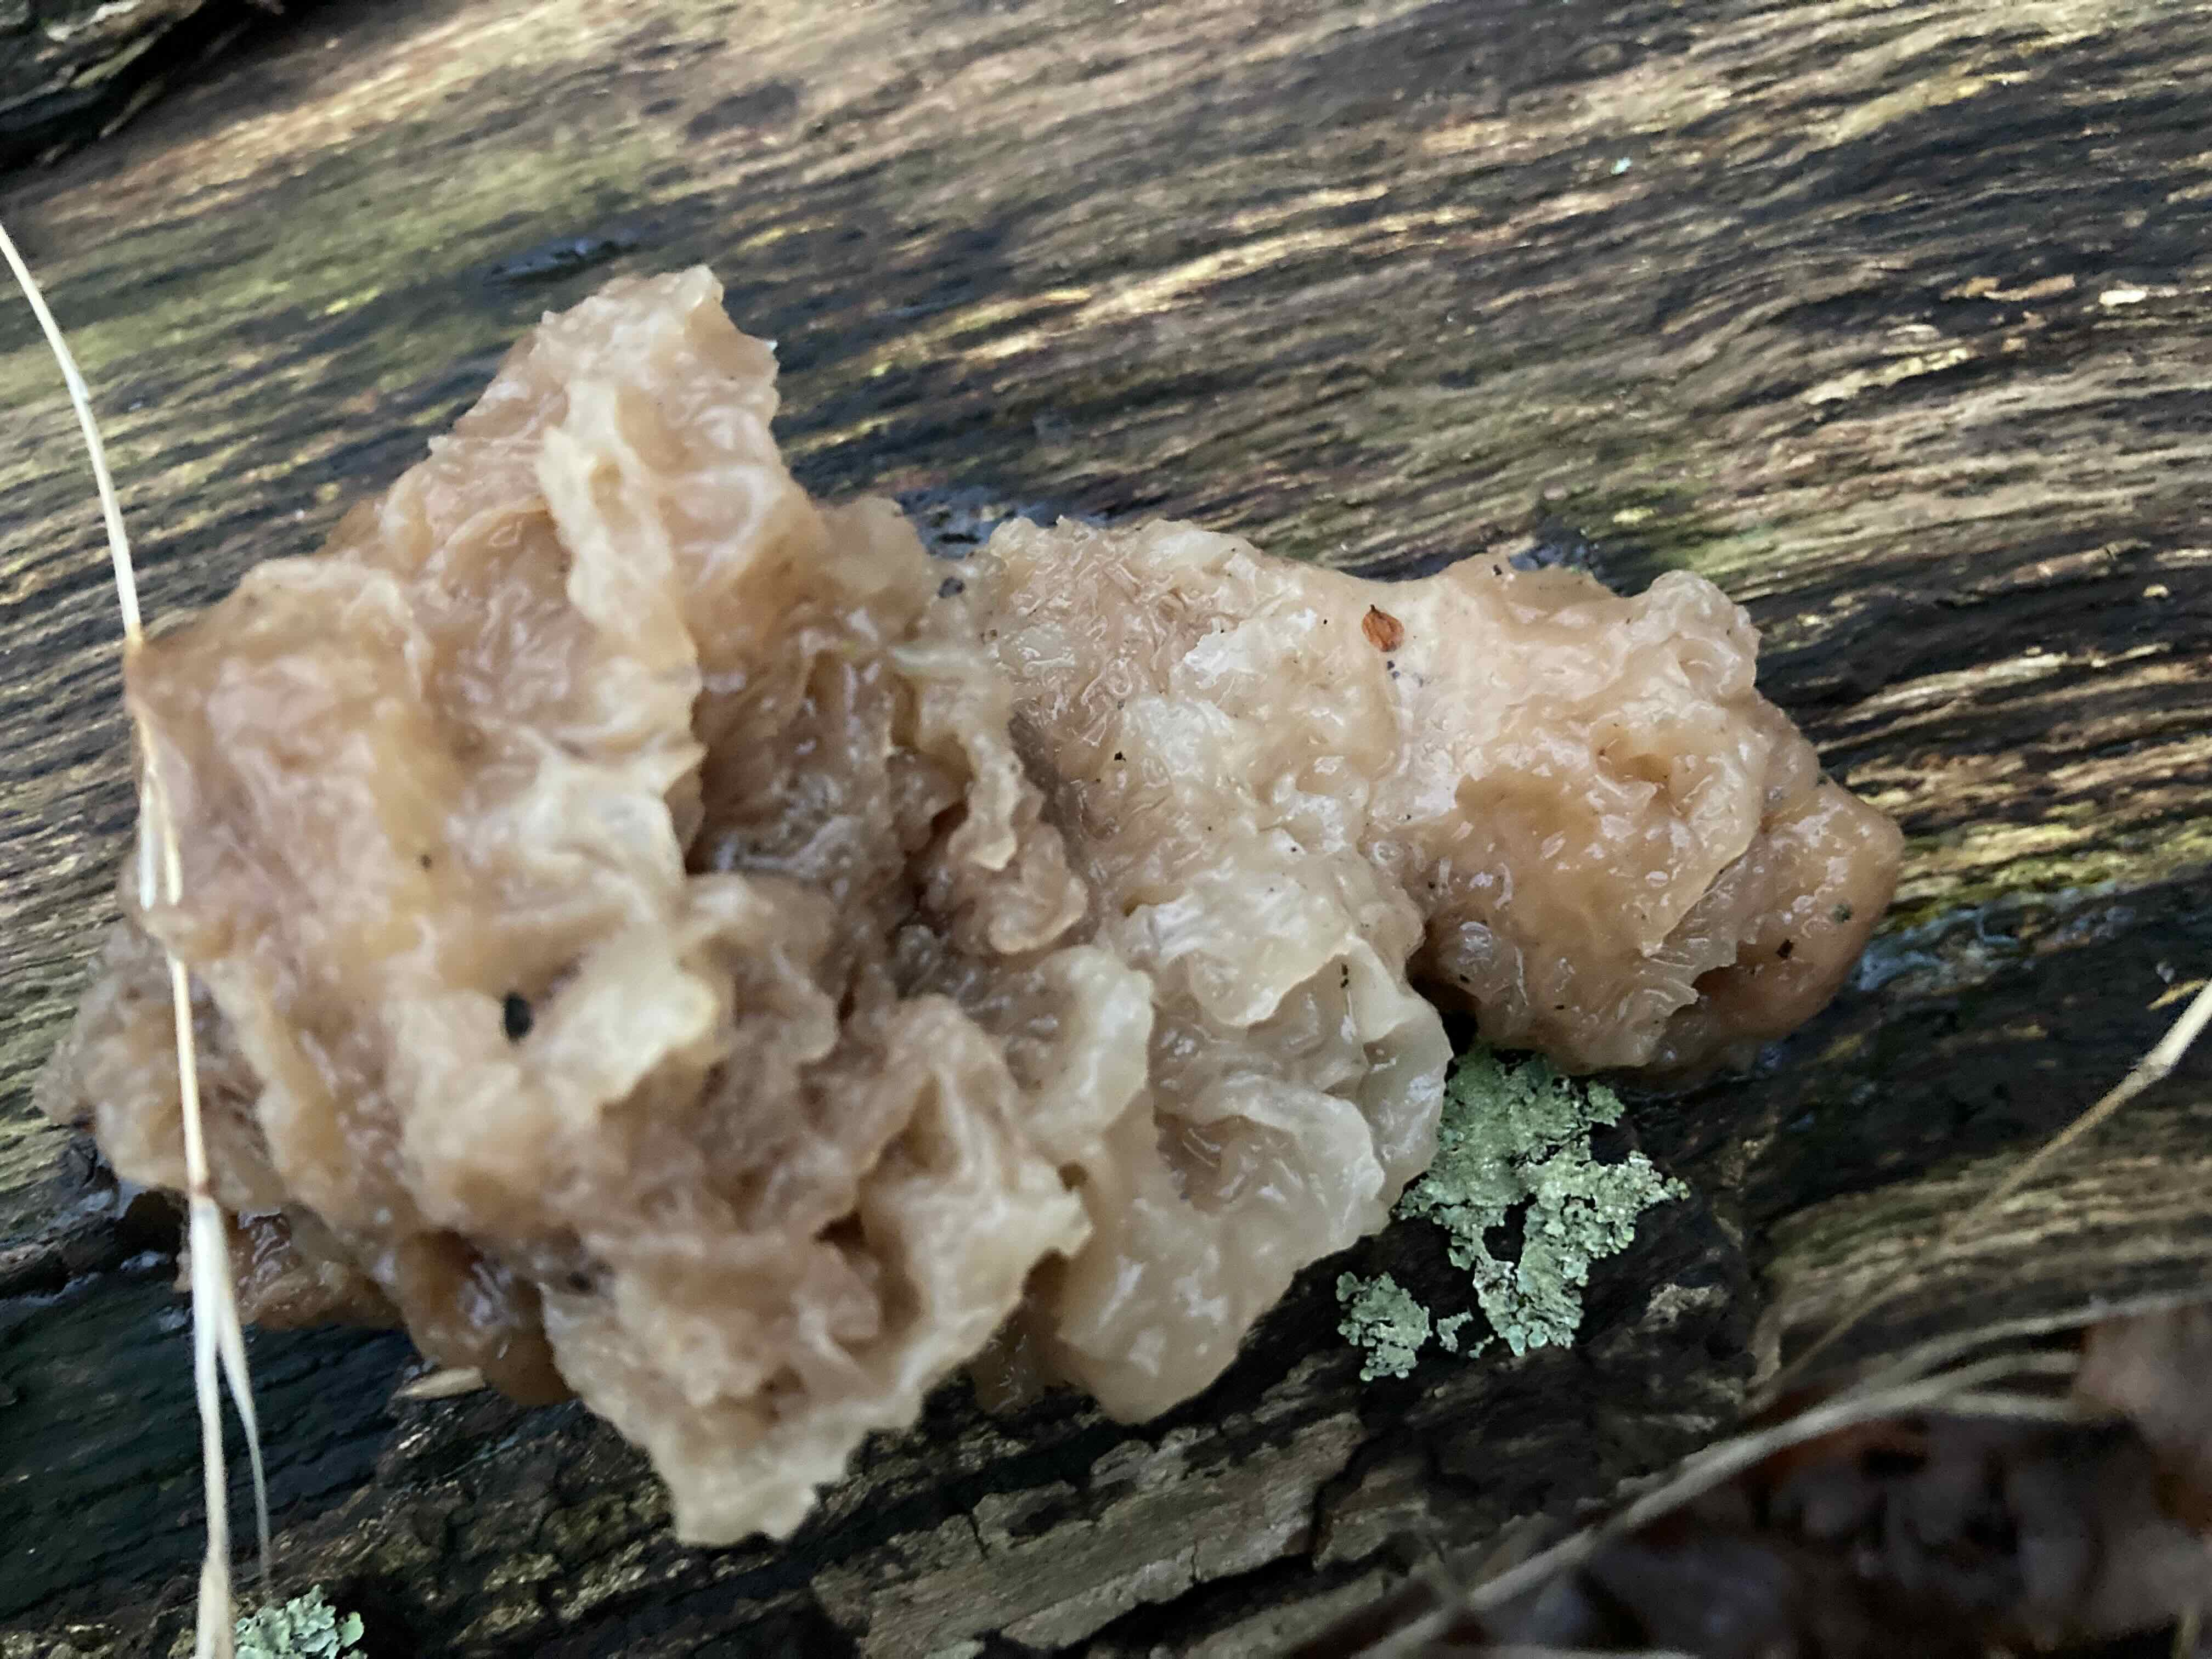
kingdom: Fungi
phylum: Basidiomycota
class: Tremellomycetes
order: Tremellales
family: Tremellaceae
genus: Phaeotremella
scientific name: Phaeotremella
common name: bævresvamp
